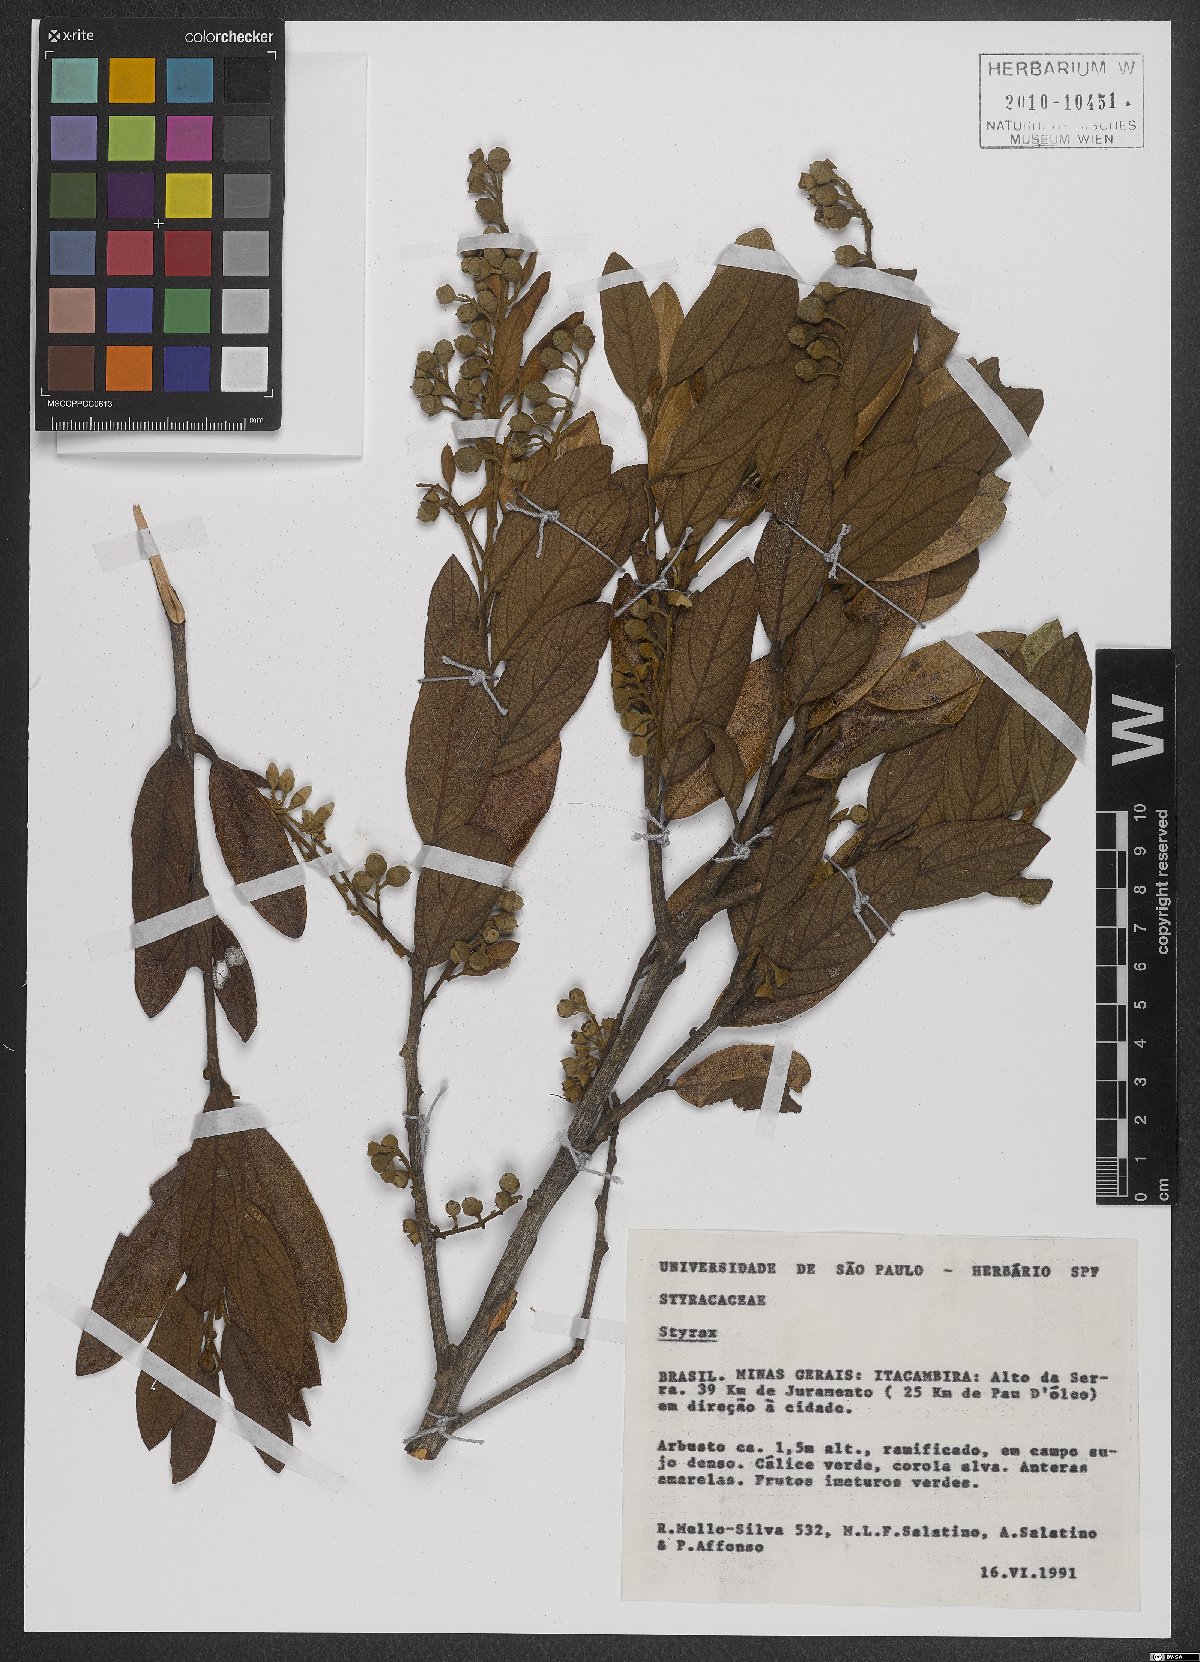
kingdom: Plantae
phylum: Tracheophyta
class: Magnoliopsida
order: Ericales
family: Styracaceae
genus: Styrax
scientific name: Styrax
